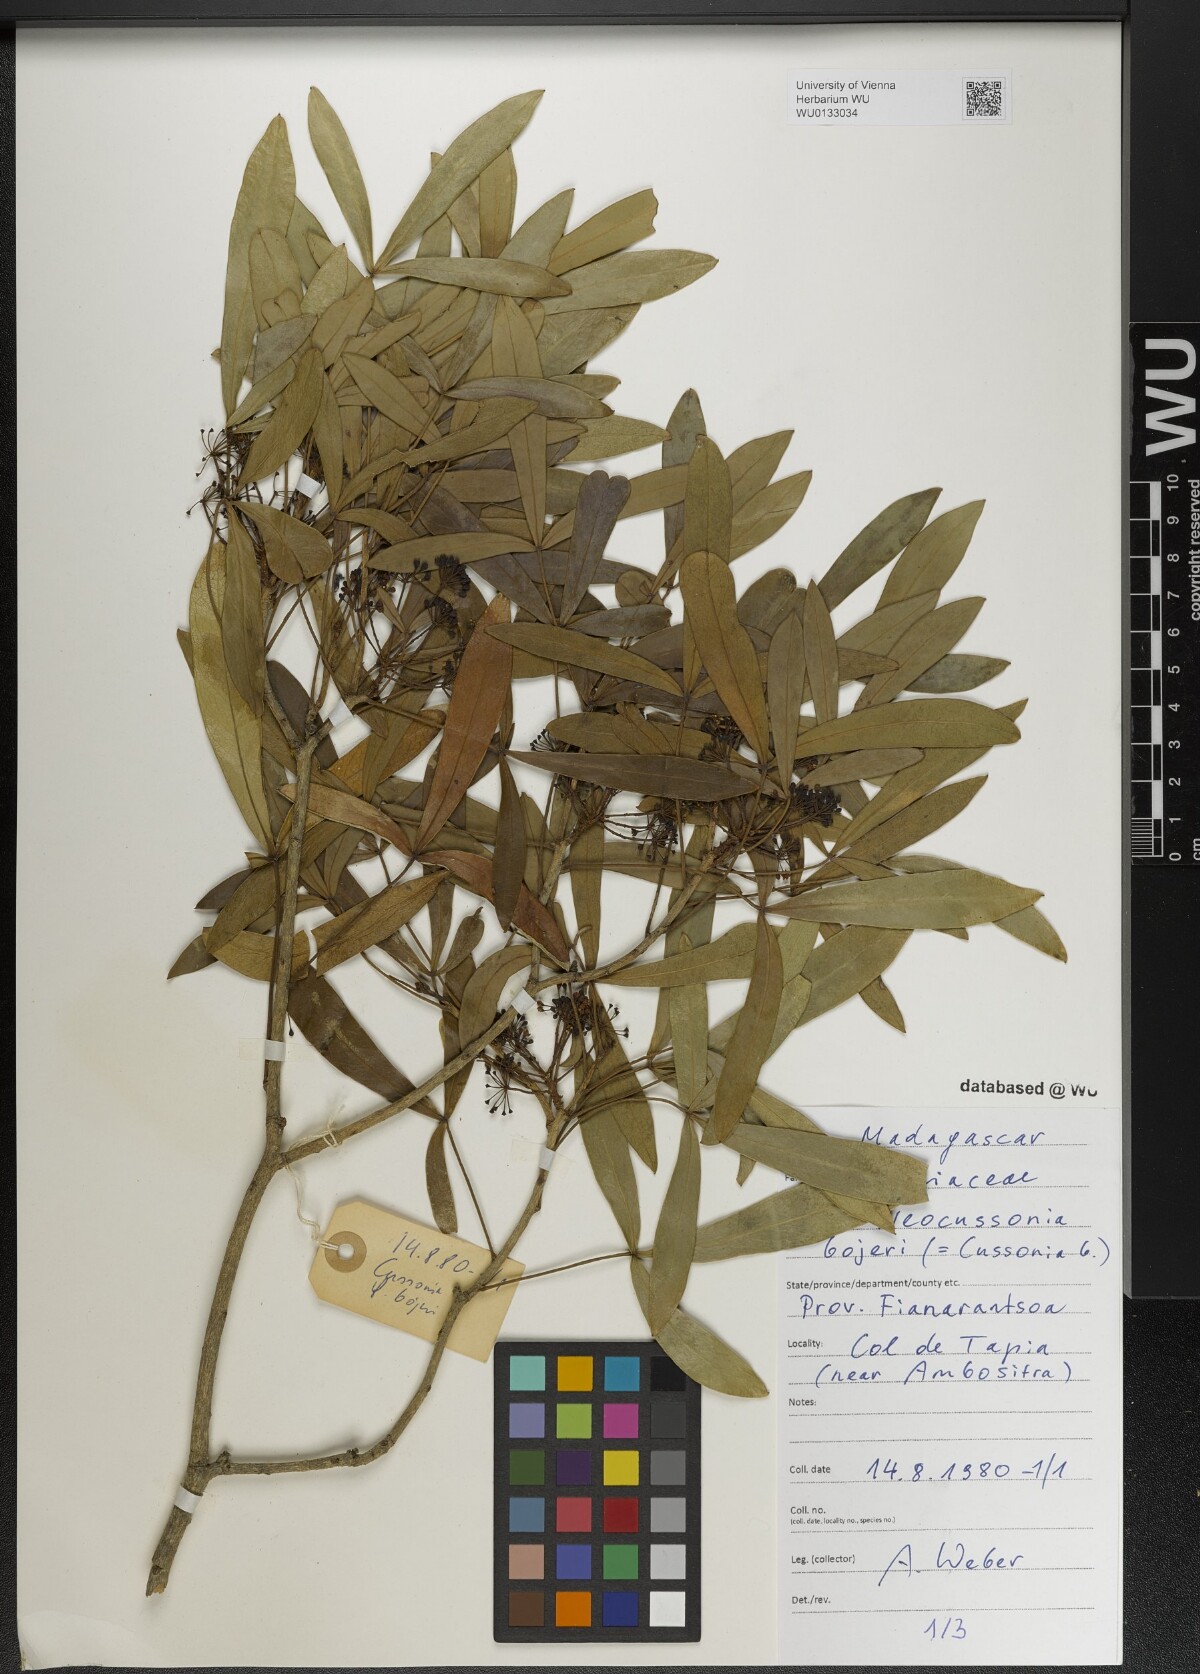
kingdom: Plantae
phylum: Tracheophyta
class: Magnoliopsida
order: Apiales
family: Araliaceae
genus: Neocussonia
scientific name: Neocussonia bojeri
